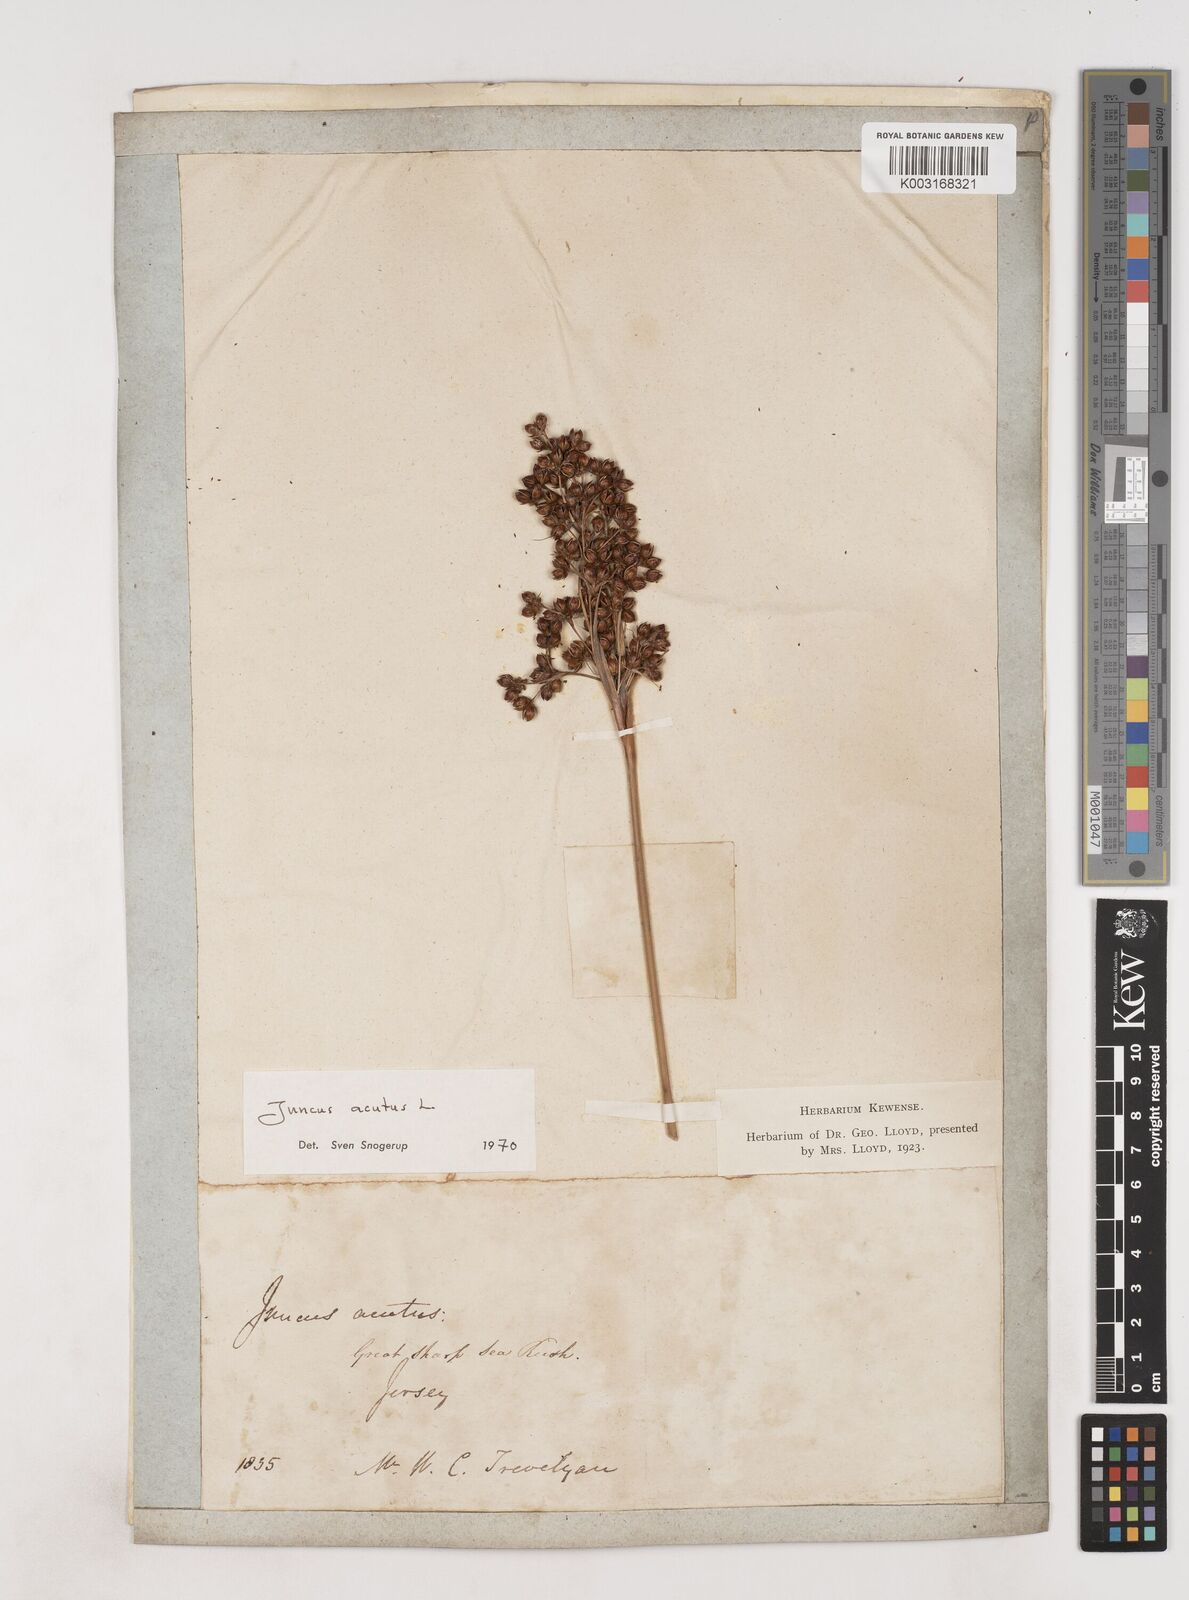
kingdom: Plantae
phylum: Tracheophyta
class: Liliopsida
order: Poales
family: Juncaceae
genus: Juncus
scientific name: Juncus acutus
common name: Sharp rush
